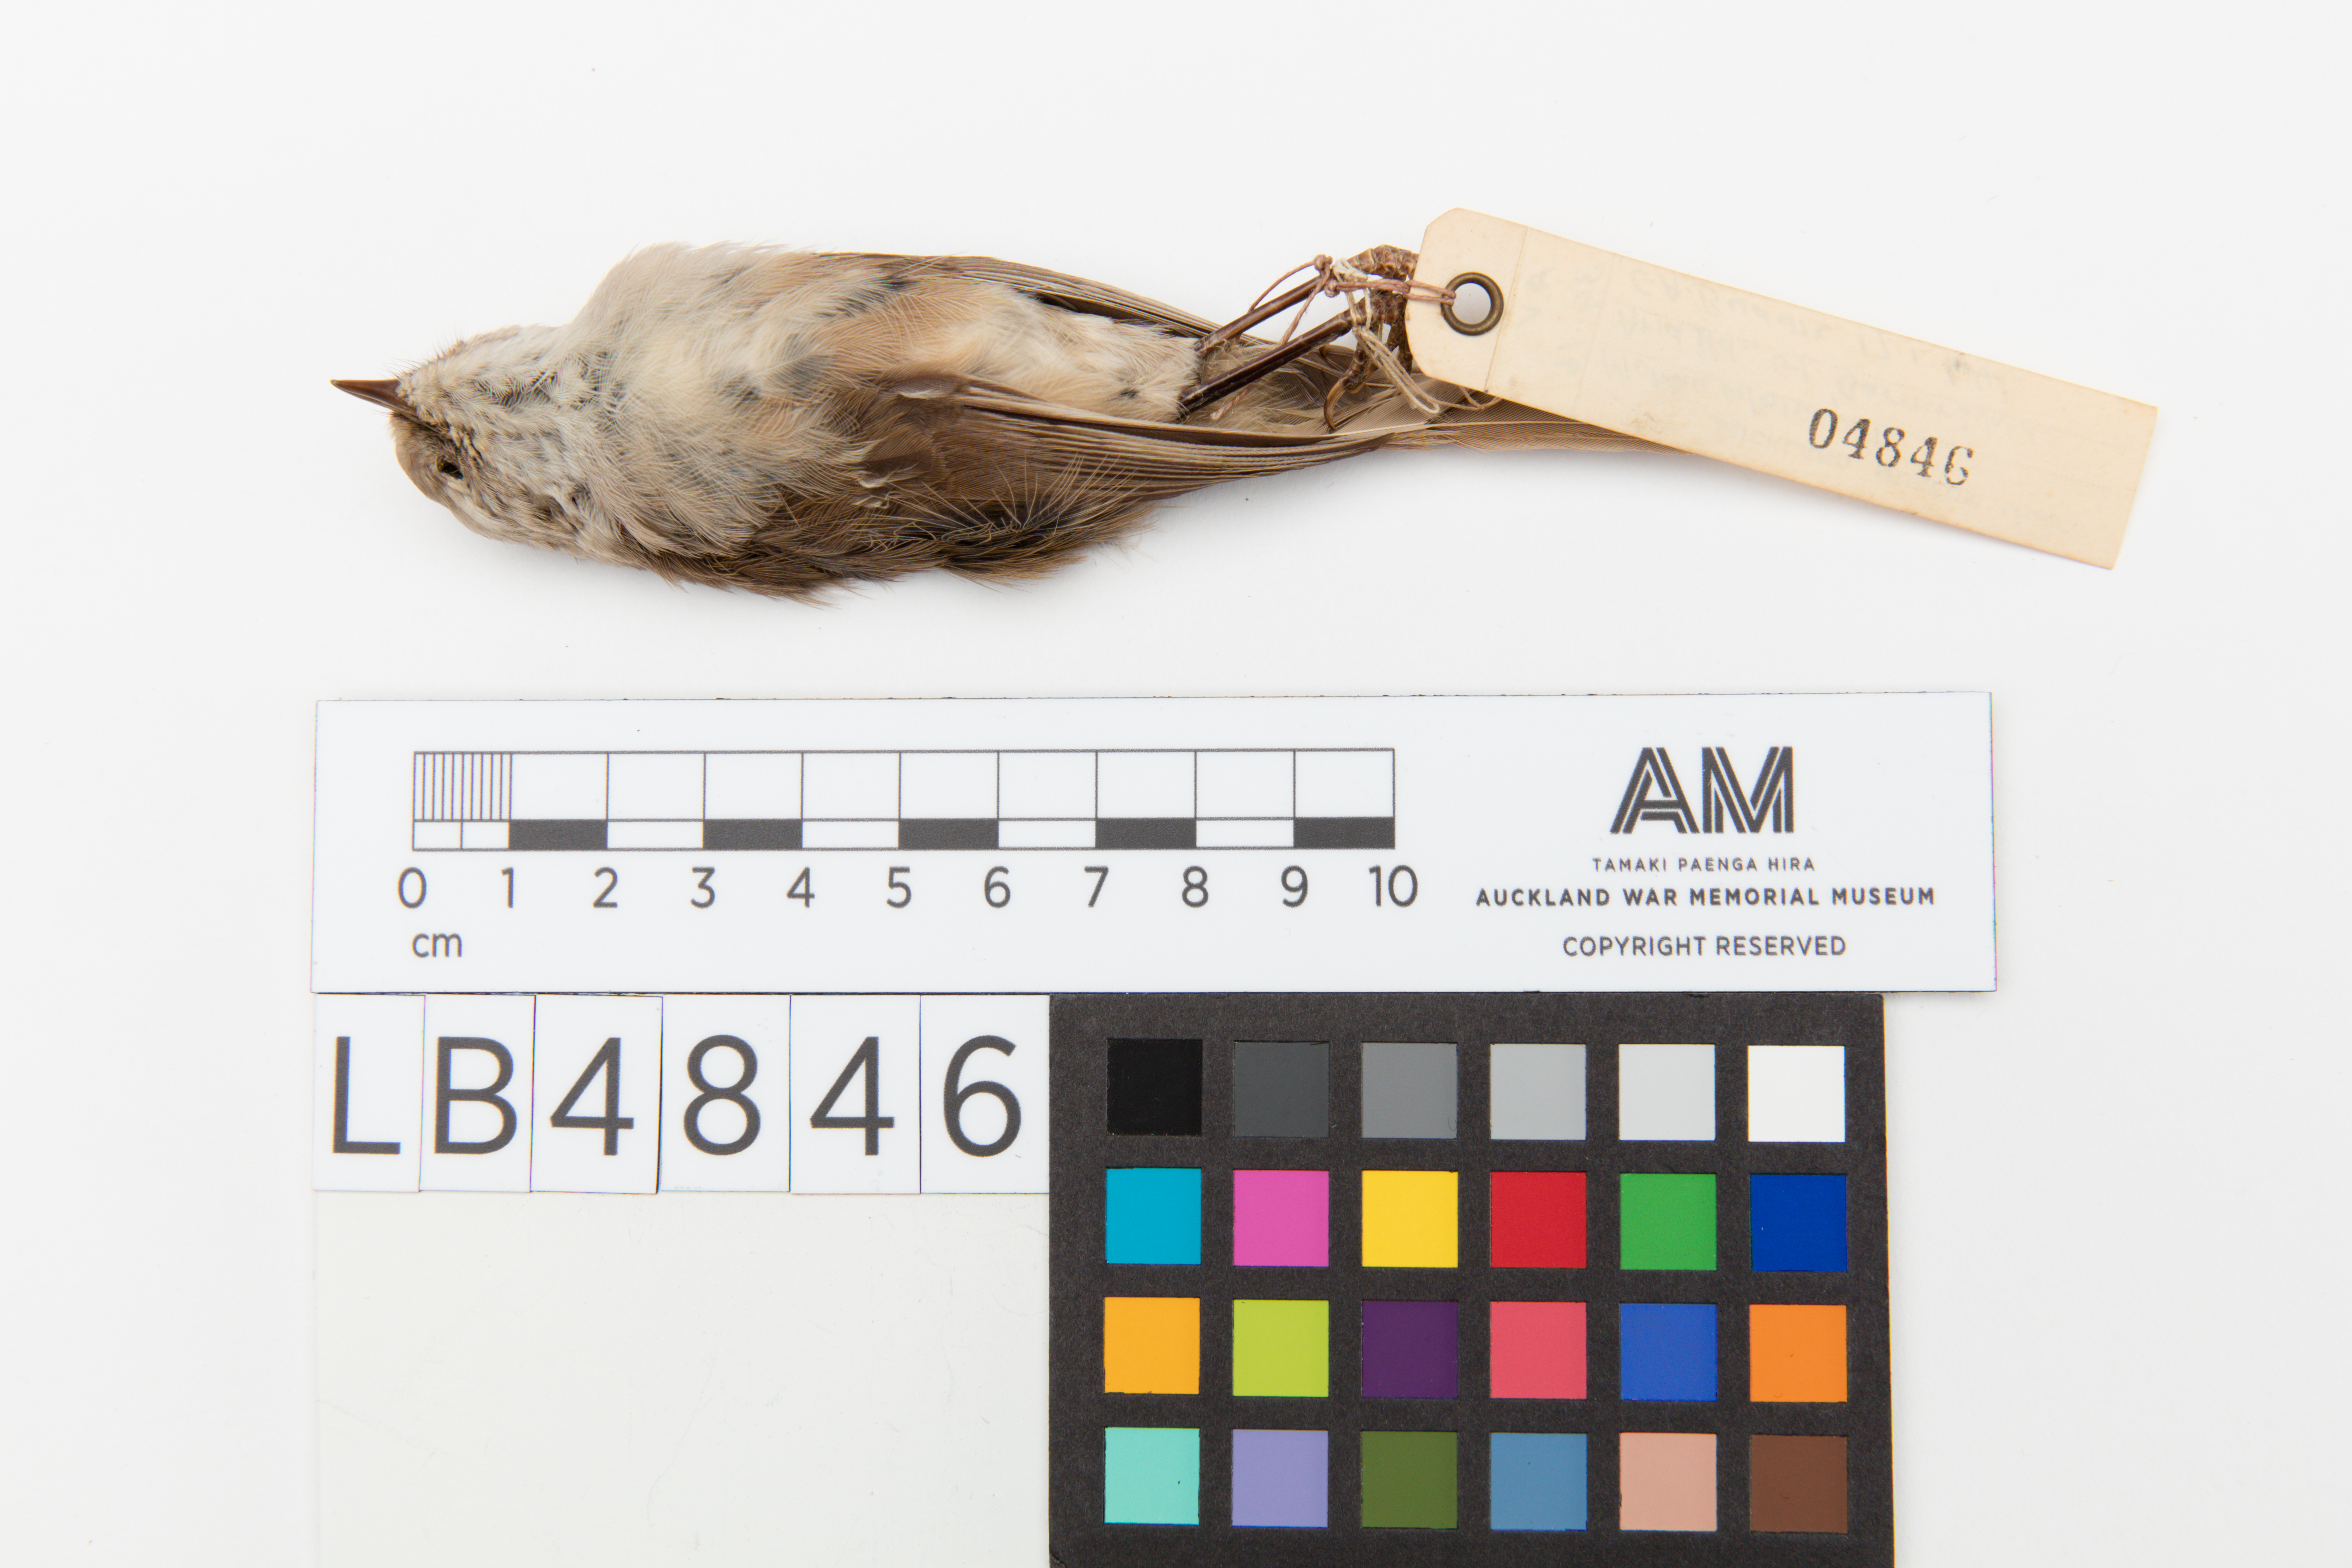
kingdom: Animalia
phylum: Chordata
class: Aves
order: Passeriformes
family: Acanthizidae
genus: Mohoua
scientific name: Mohoua albicilla
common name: Whitehead
